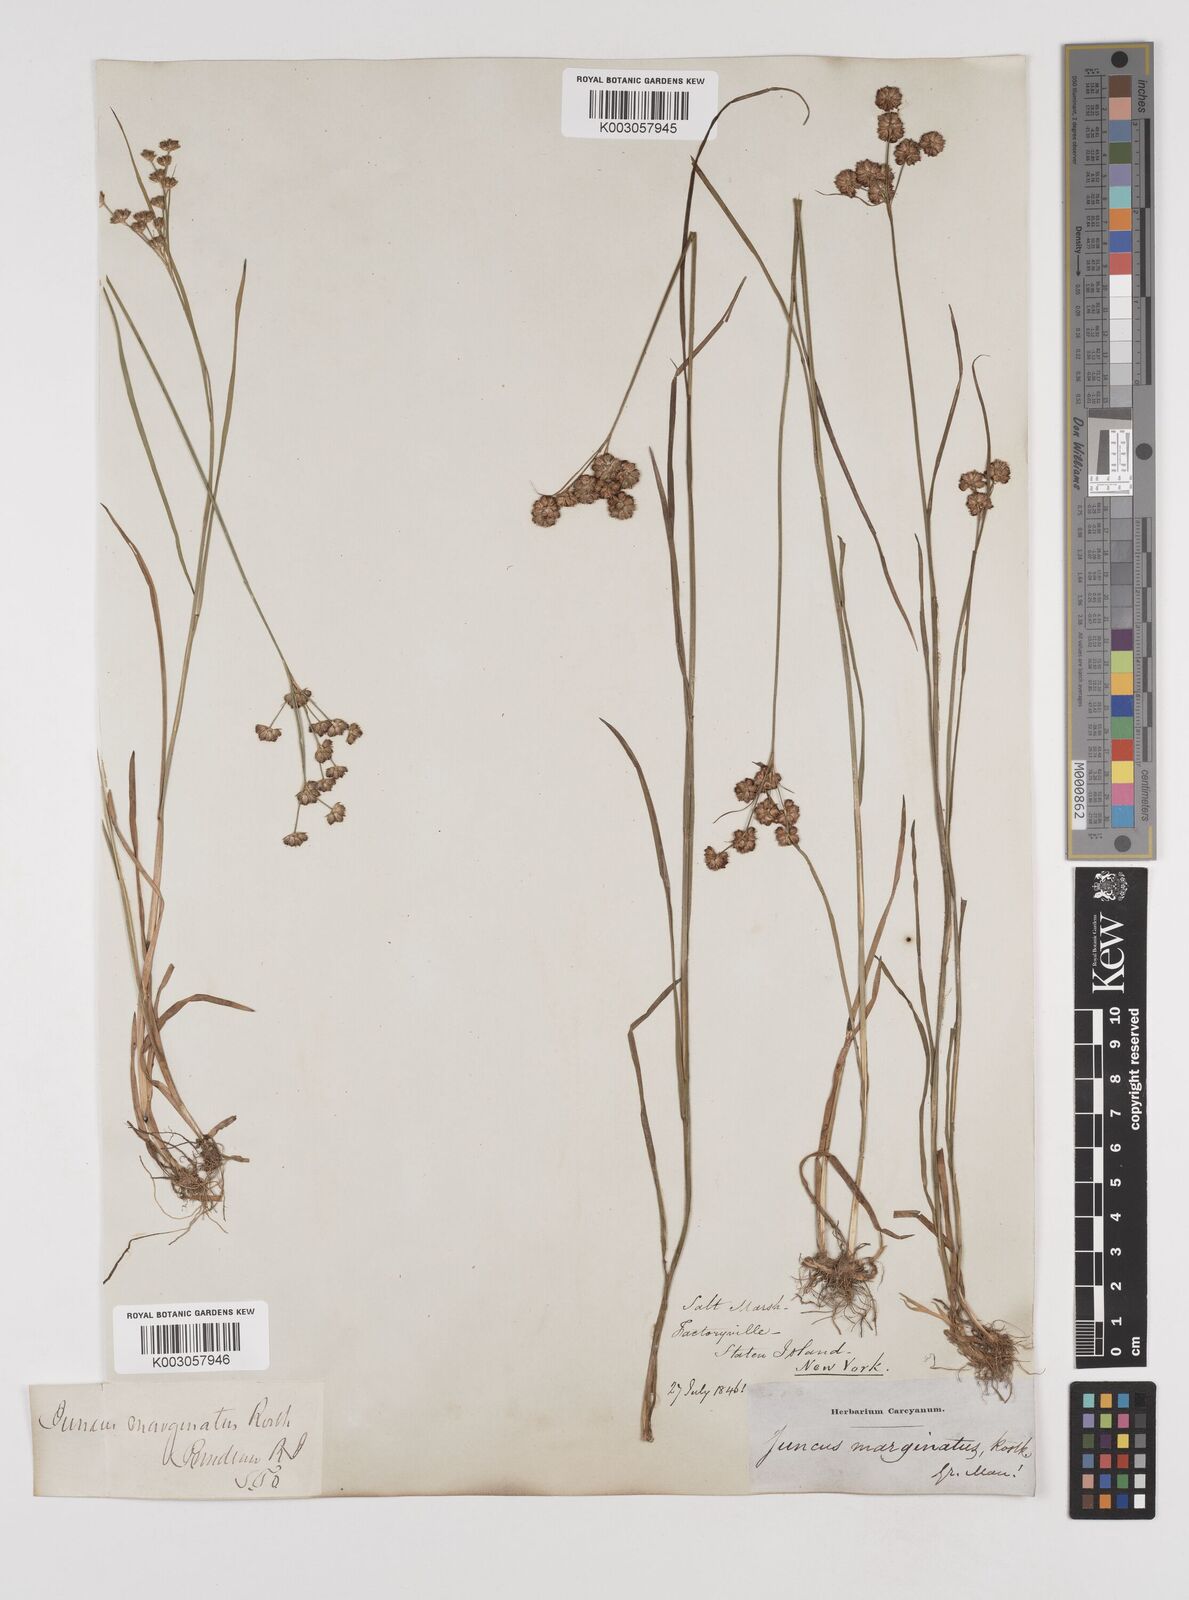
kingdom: Plantae
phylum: Tracheophyta
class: Liliopsida
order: Poales
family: Juncaceae
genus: Juncus
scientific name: Juncus marginatus
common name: Grass-leaf rush
